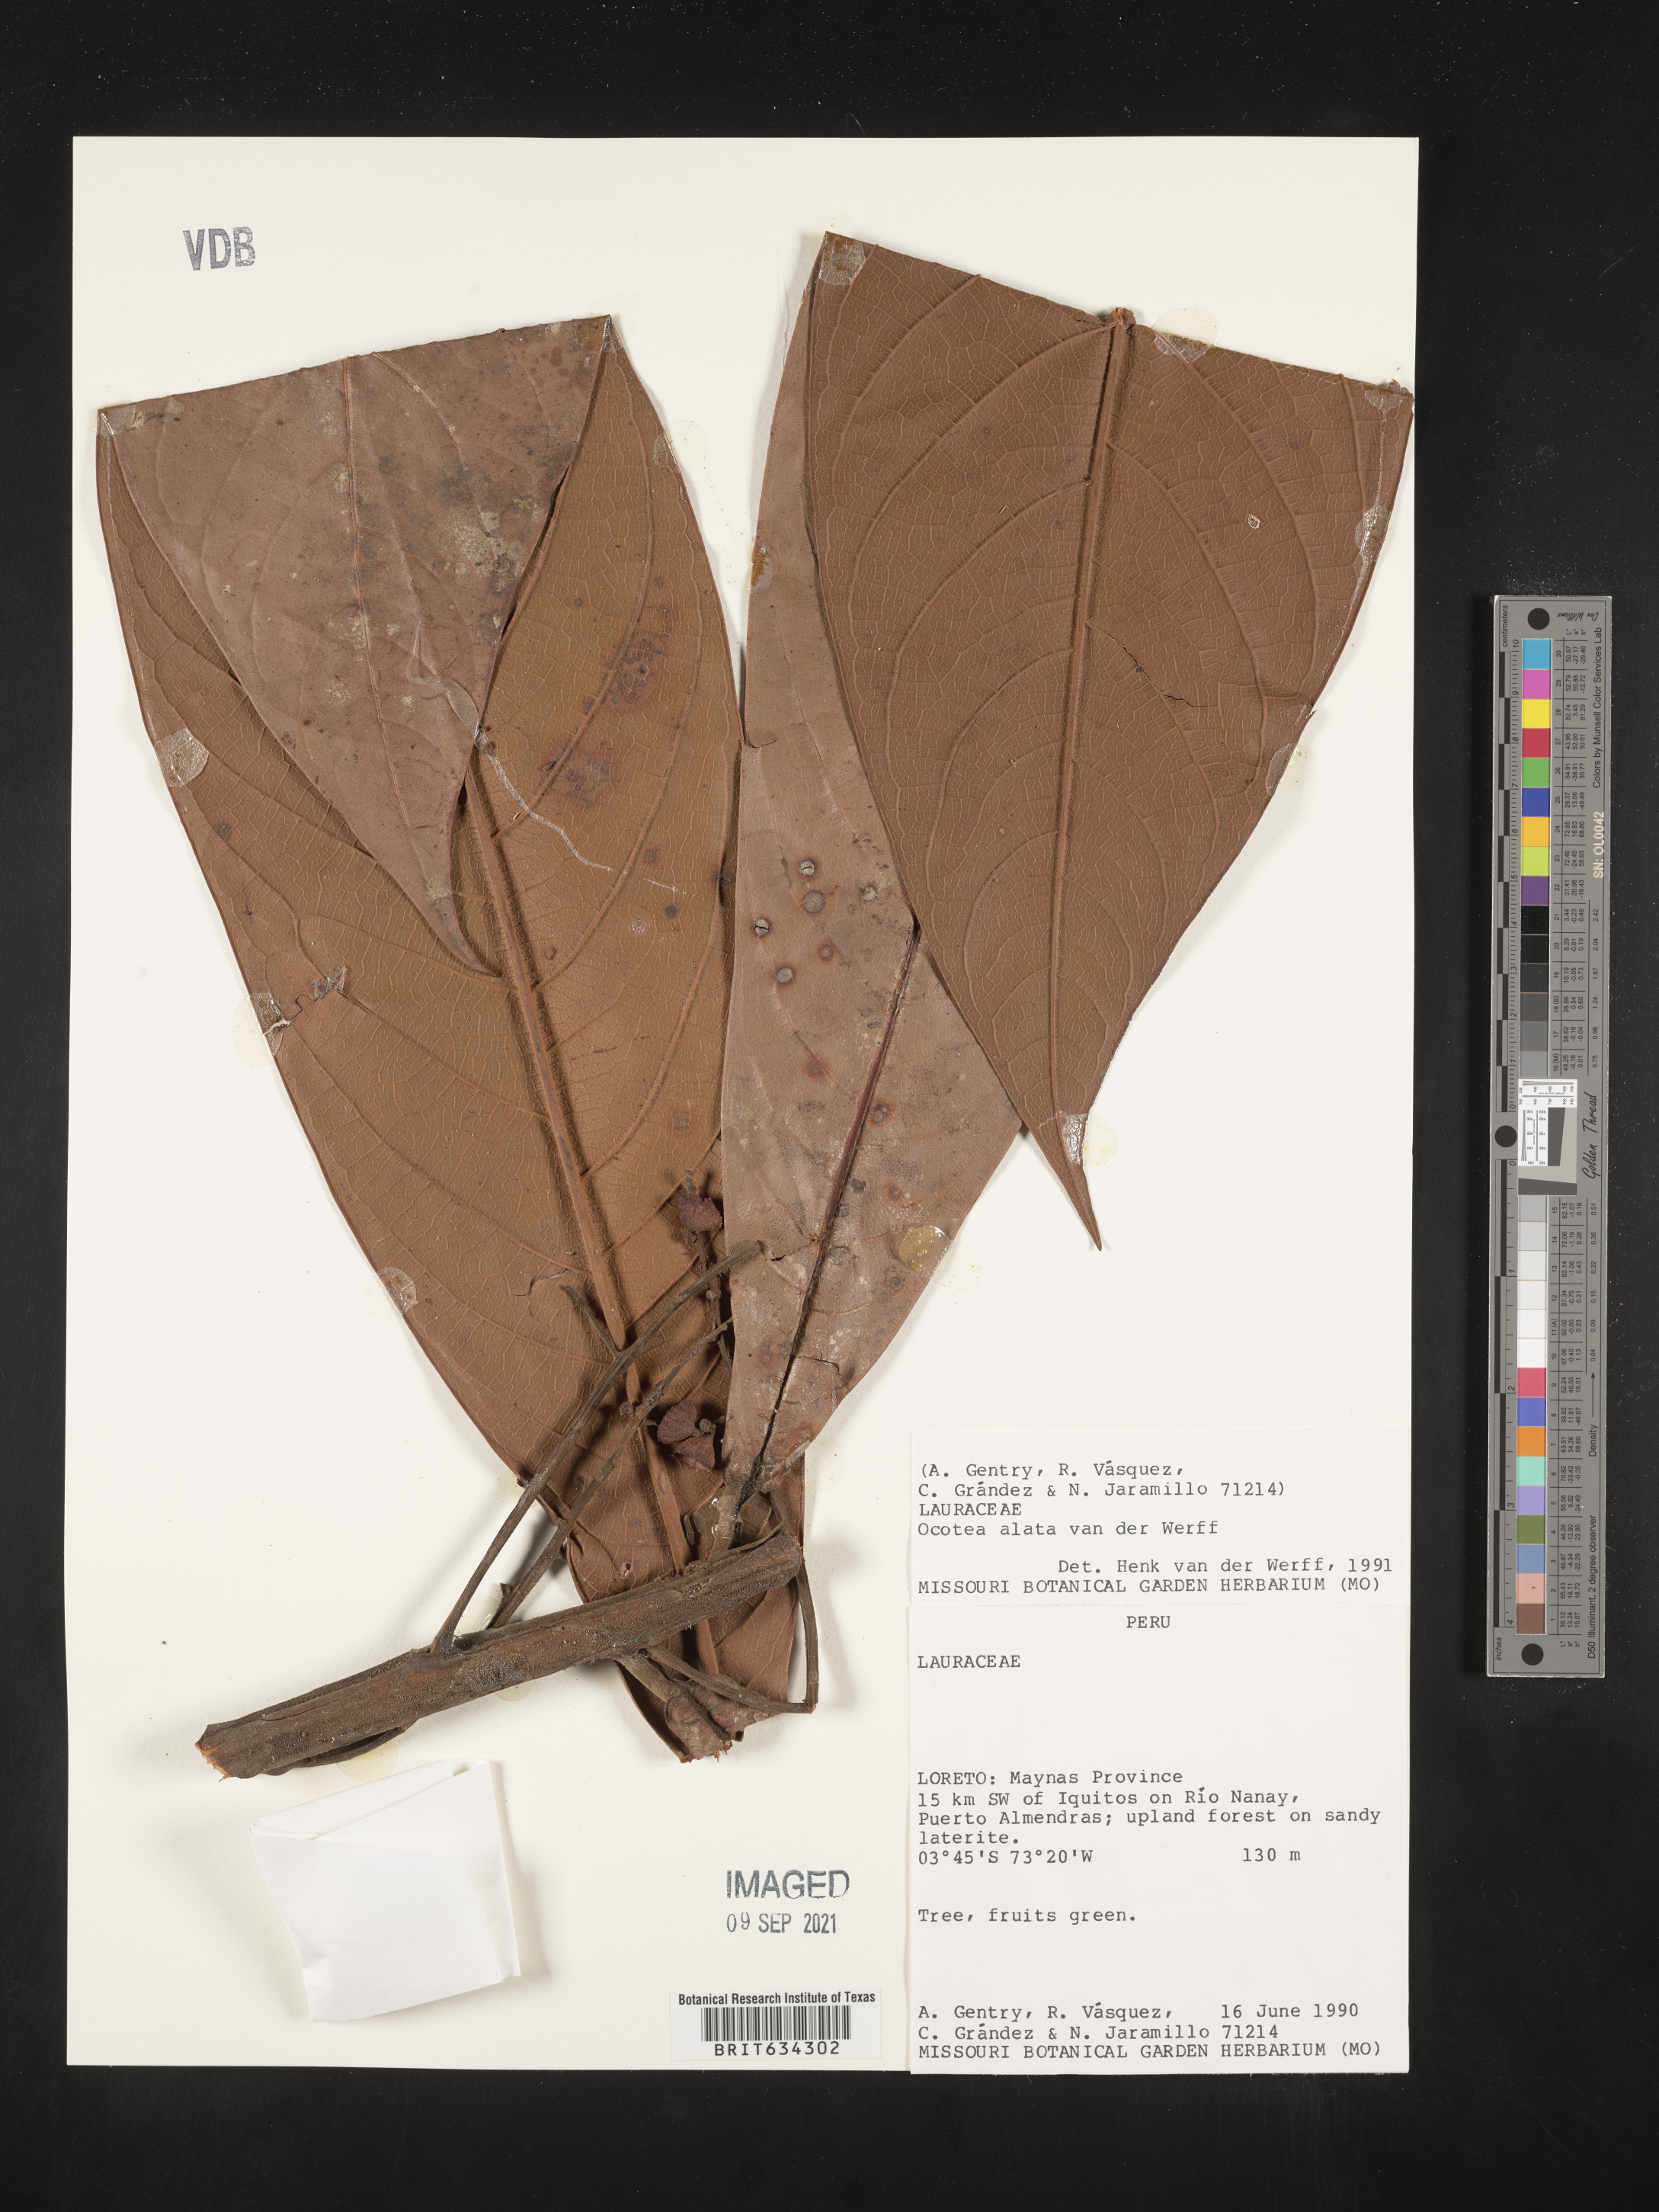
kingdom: Plantae
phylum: Tracheophyta
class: Magnoliopsida
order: Laurales
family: Lauraceae
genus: Ocotea
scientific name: Ocotea
